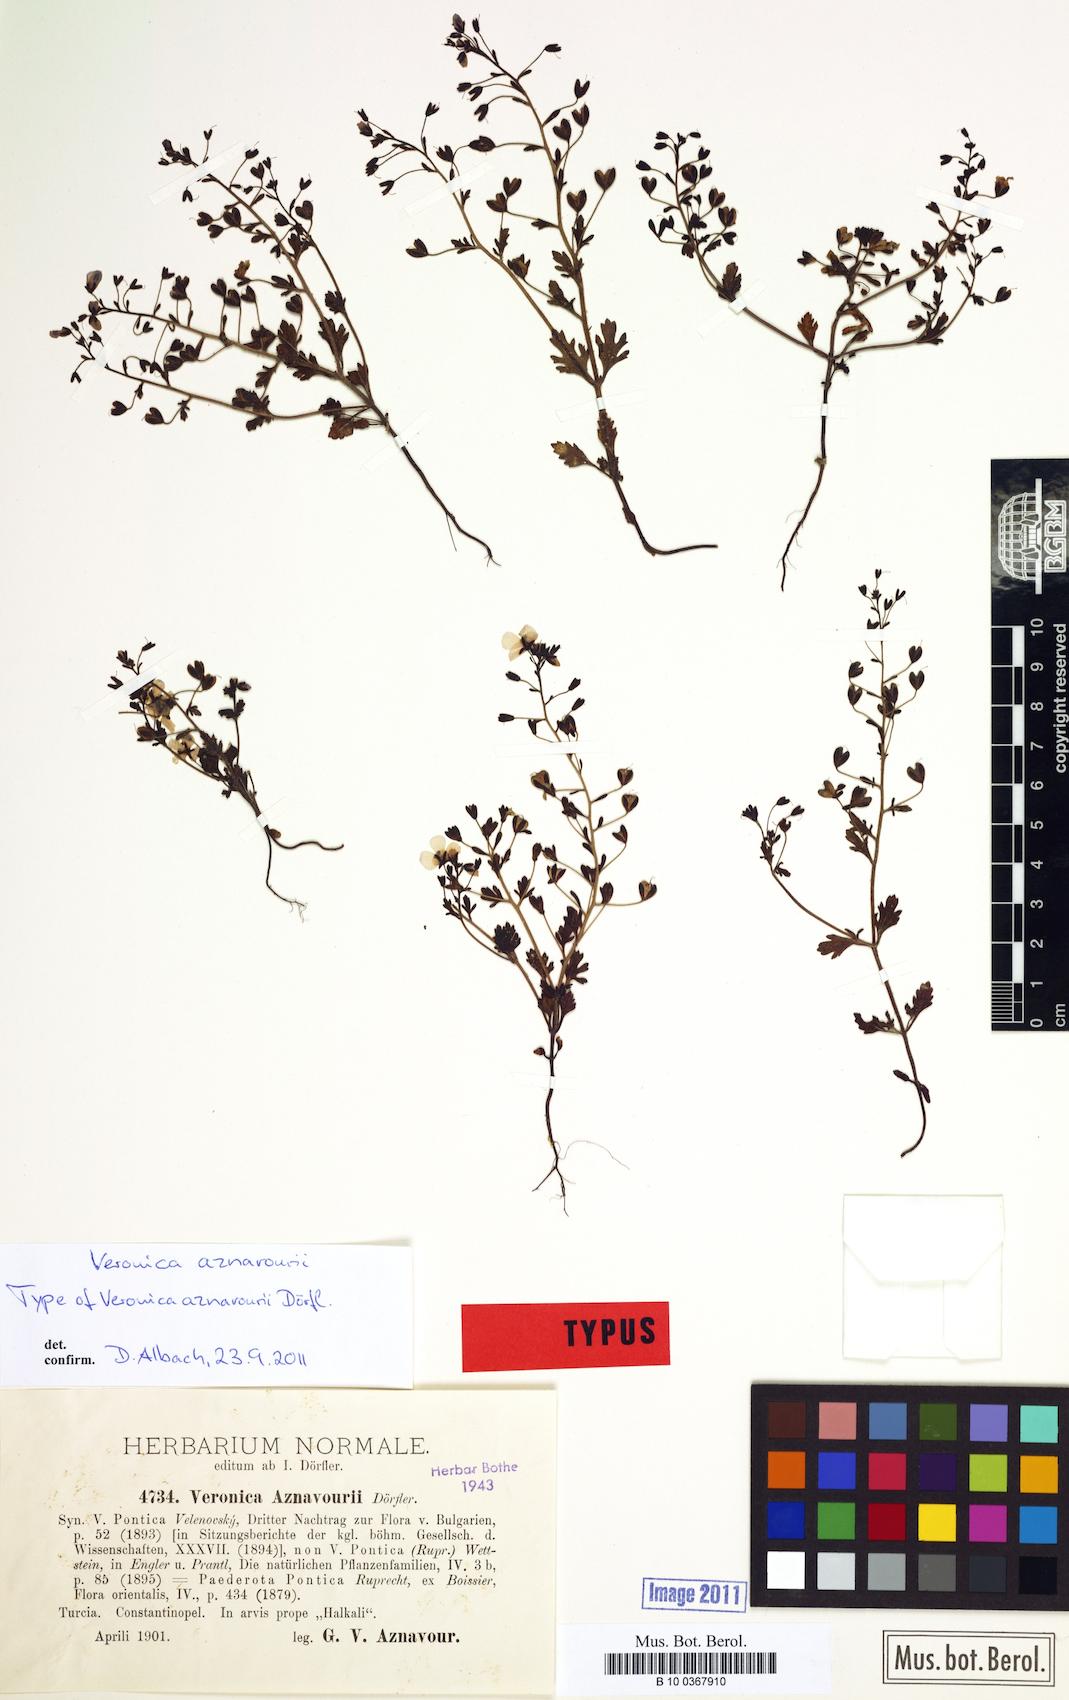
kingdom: Plantae
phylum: Tracheophyta
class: Magnoliopsida
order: Lamiales
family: Plantaginaceae
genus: Veronica
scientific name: Veronica aznavourii
